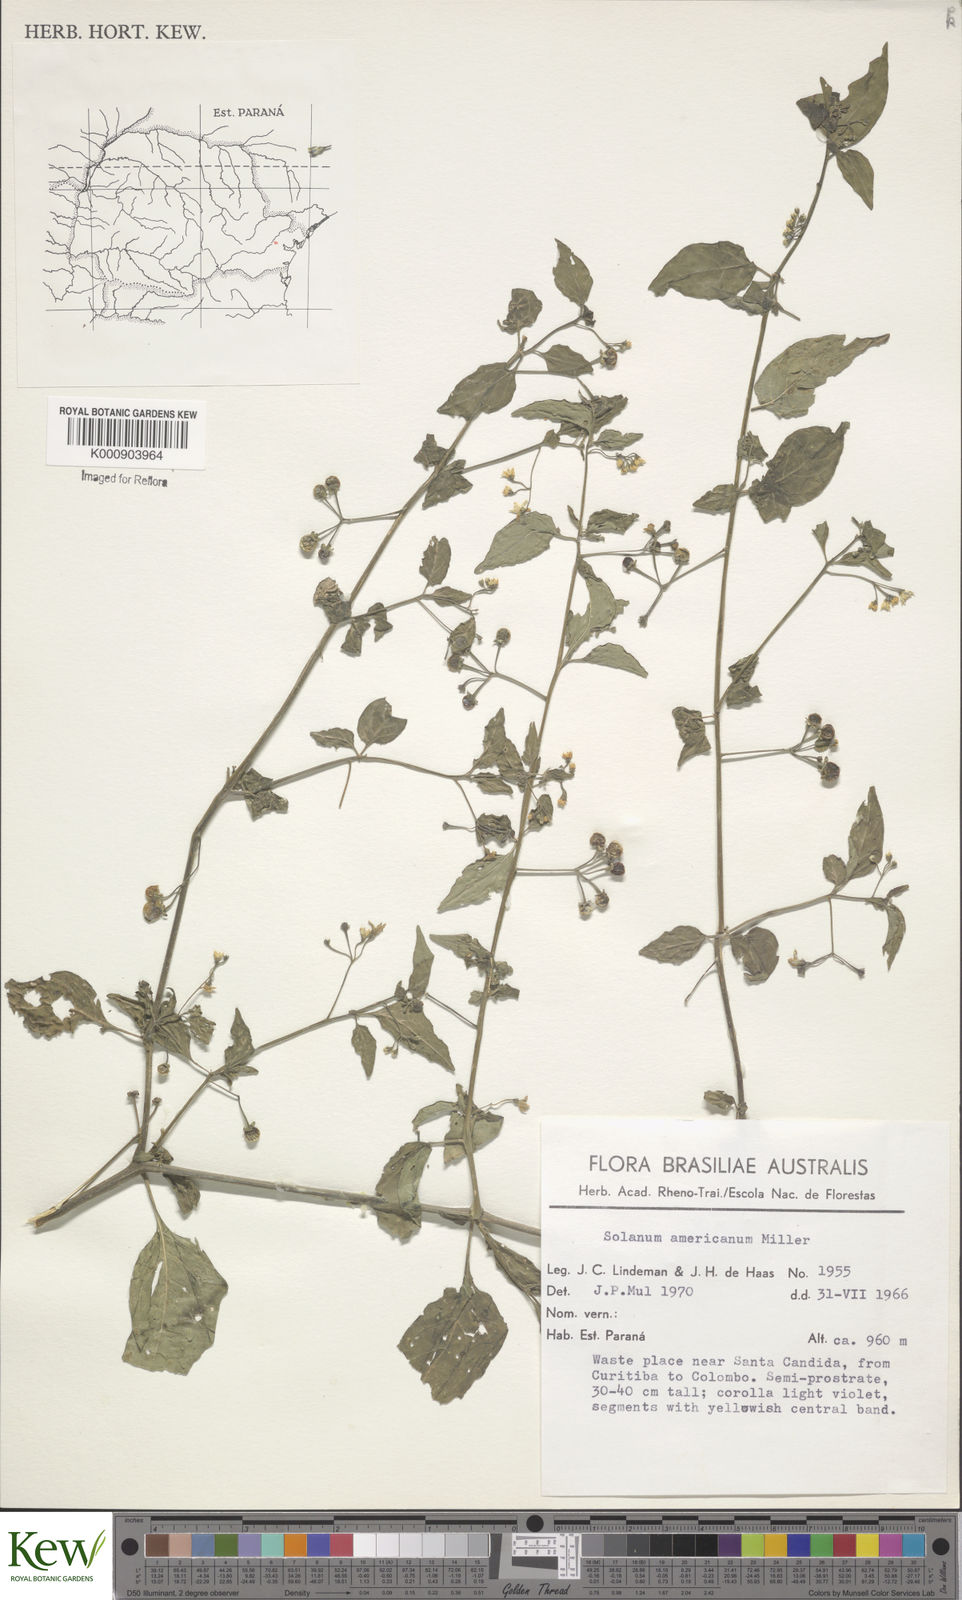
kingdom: Plantae
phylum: Tracheophyta
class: Magnoliopsida
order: Solanales
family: Solanaceae
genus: Solanum
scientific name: Solanum americanum
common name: American black nightshade
